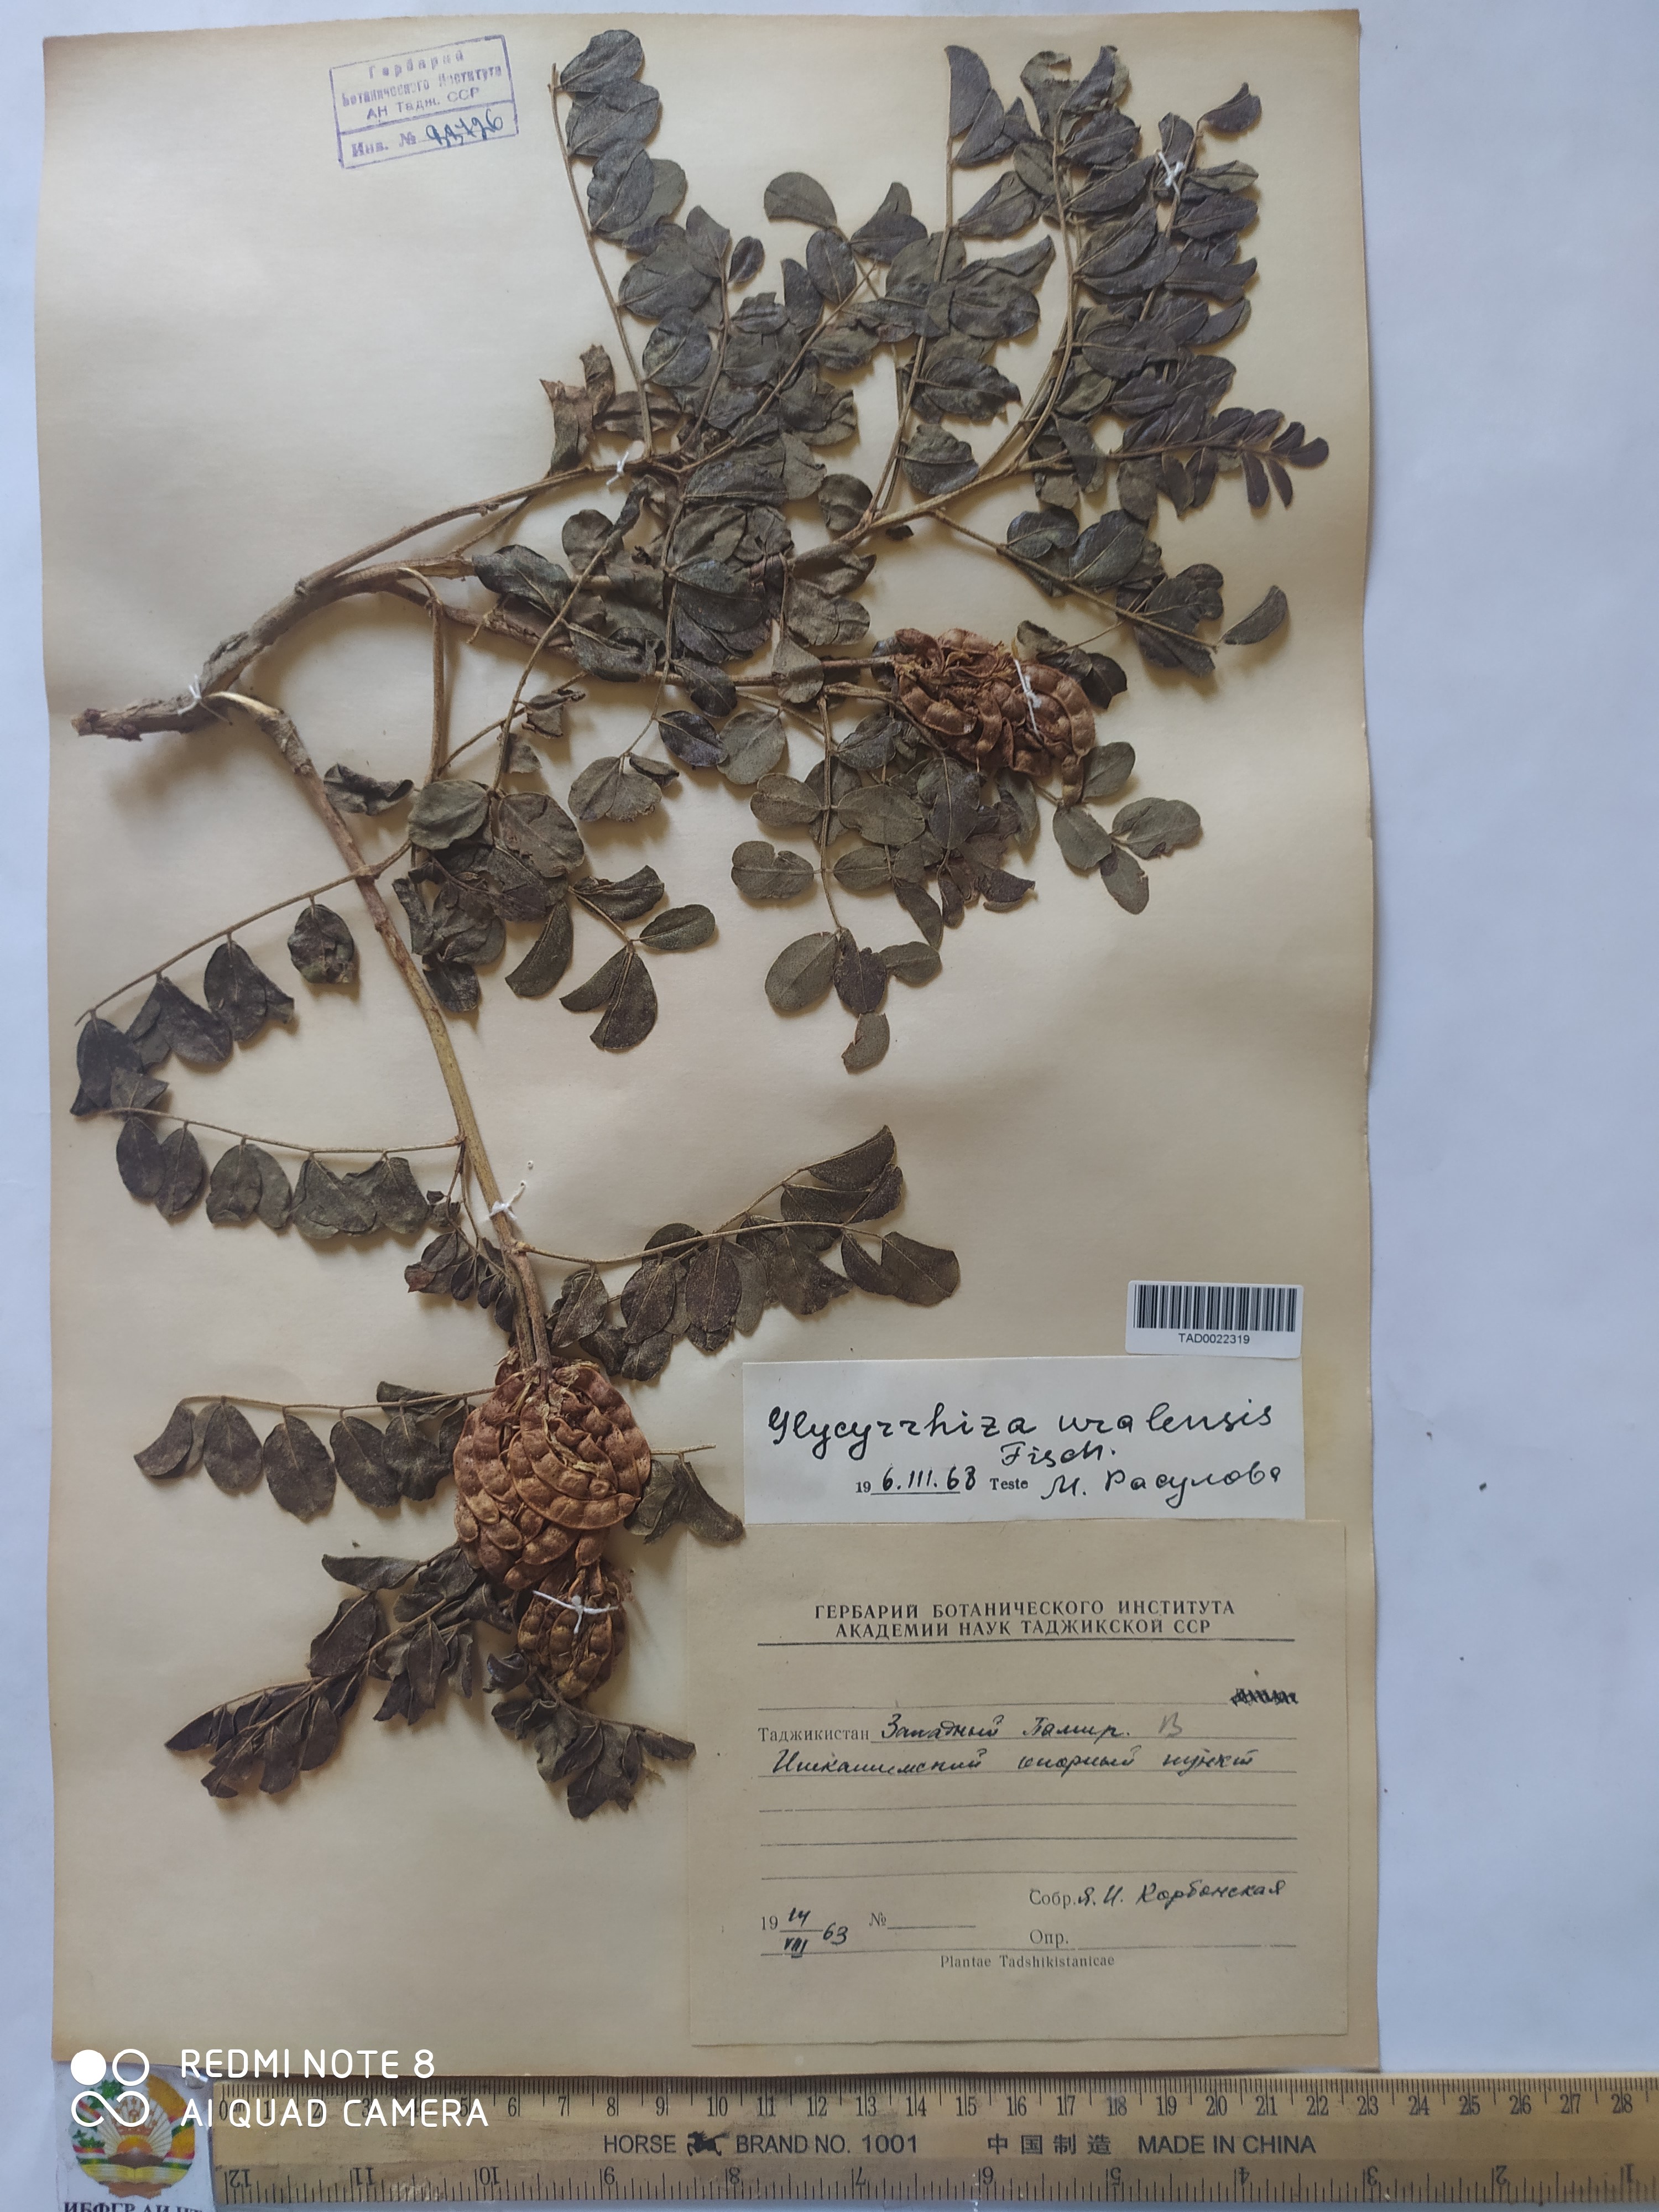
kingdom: Plantae
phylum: Tracheophyta
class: Magnoliopsida
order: Fabales
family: Fabaceae
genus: Glycyrrhiza
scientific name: Glycyrrhiza uralensis
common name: Chinese licorice
